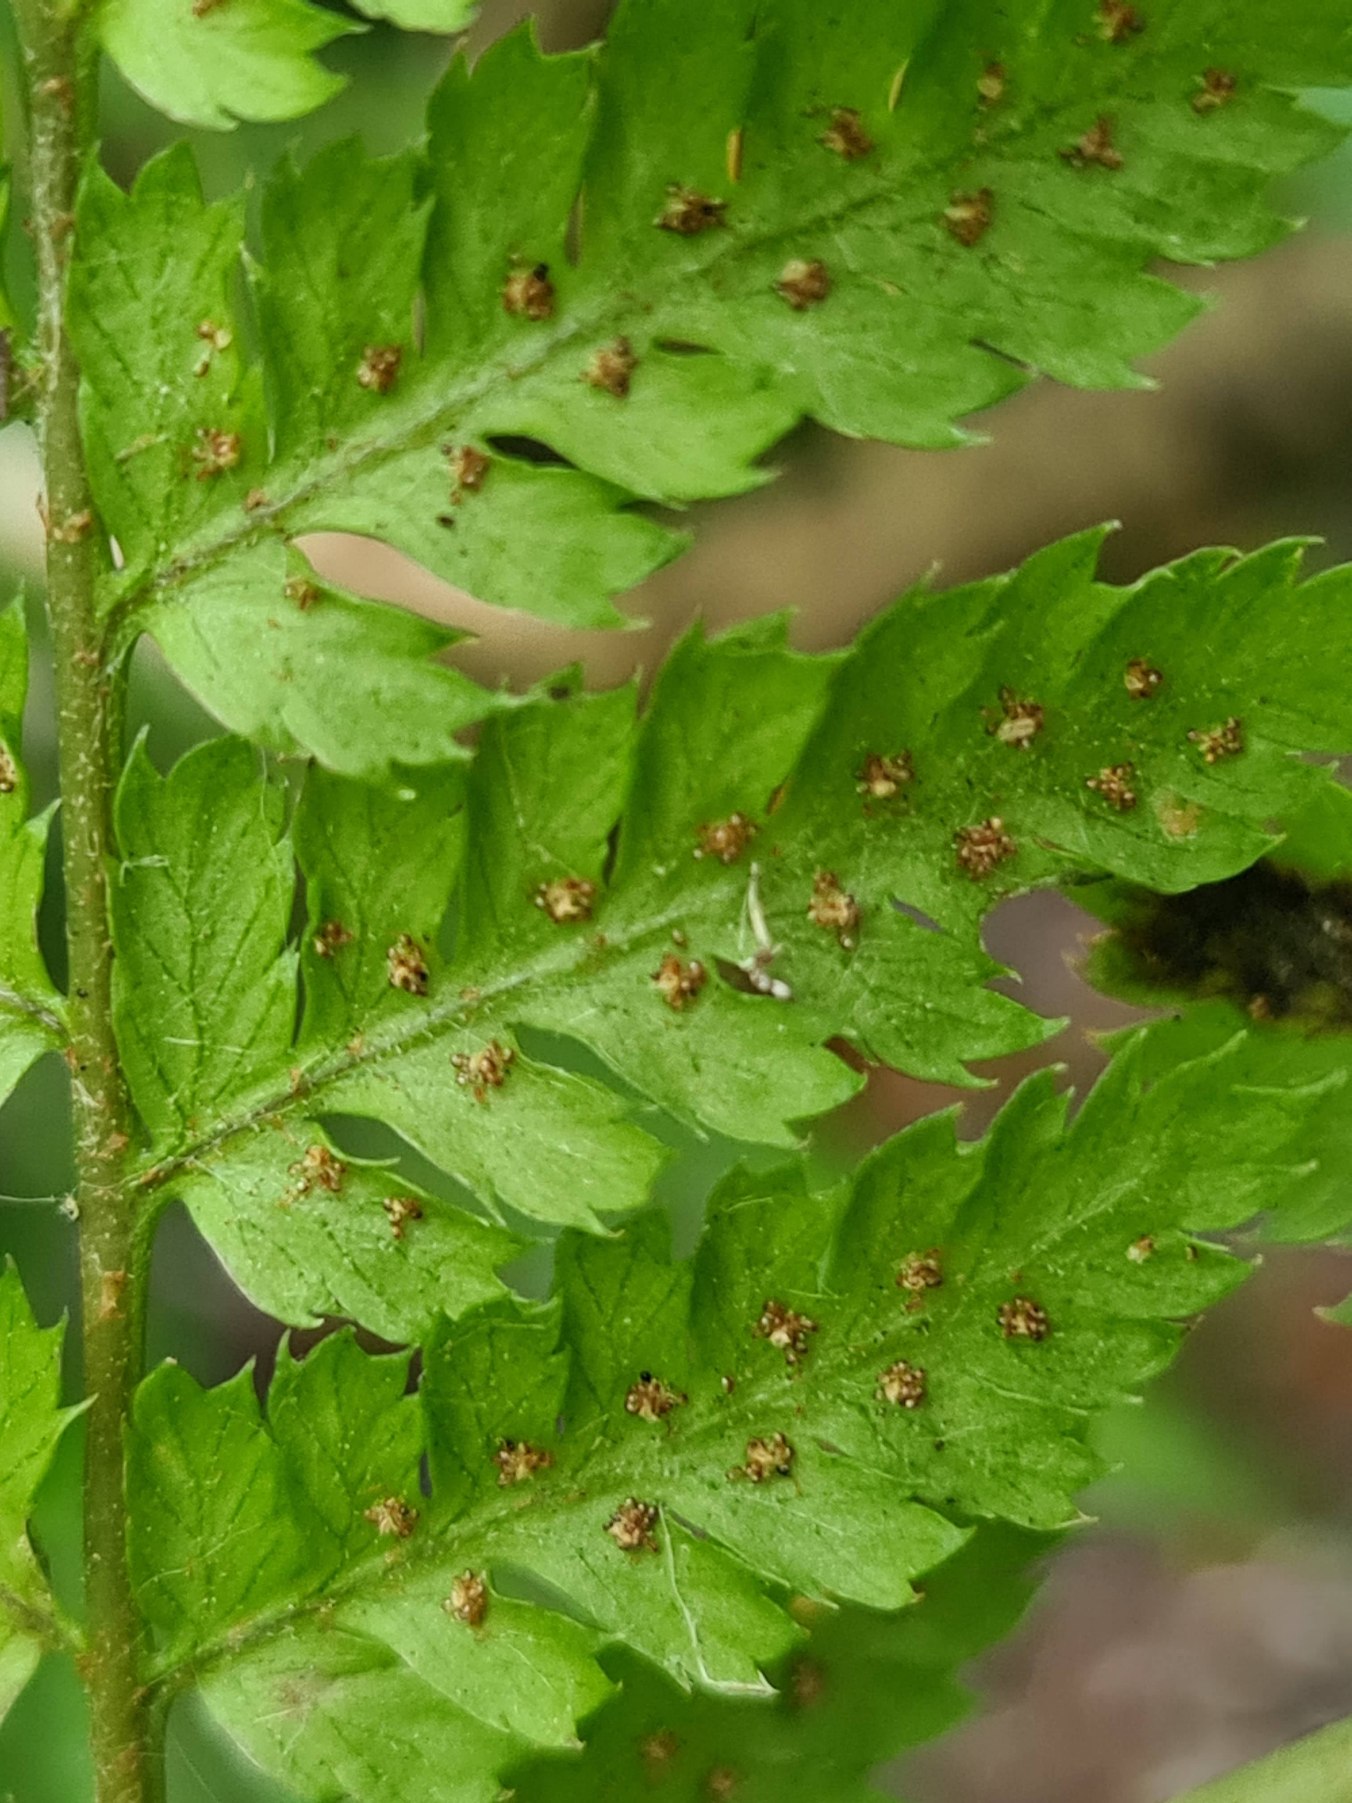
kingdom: Plantae
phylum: Tracheophyta
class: Polypodiopsida
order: Polypodiales
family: Dryopteridaceae
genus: Dryopteris
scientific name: Dryopteris dilatata
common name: Bredbladet mangeløv
